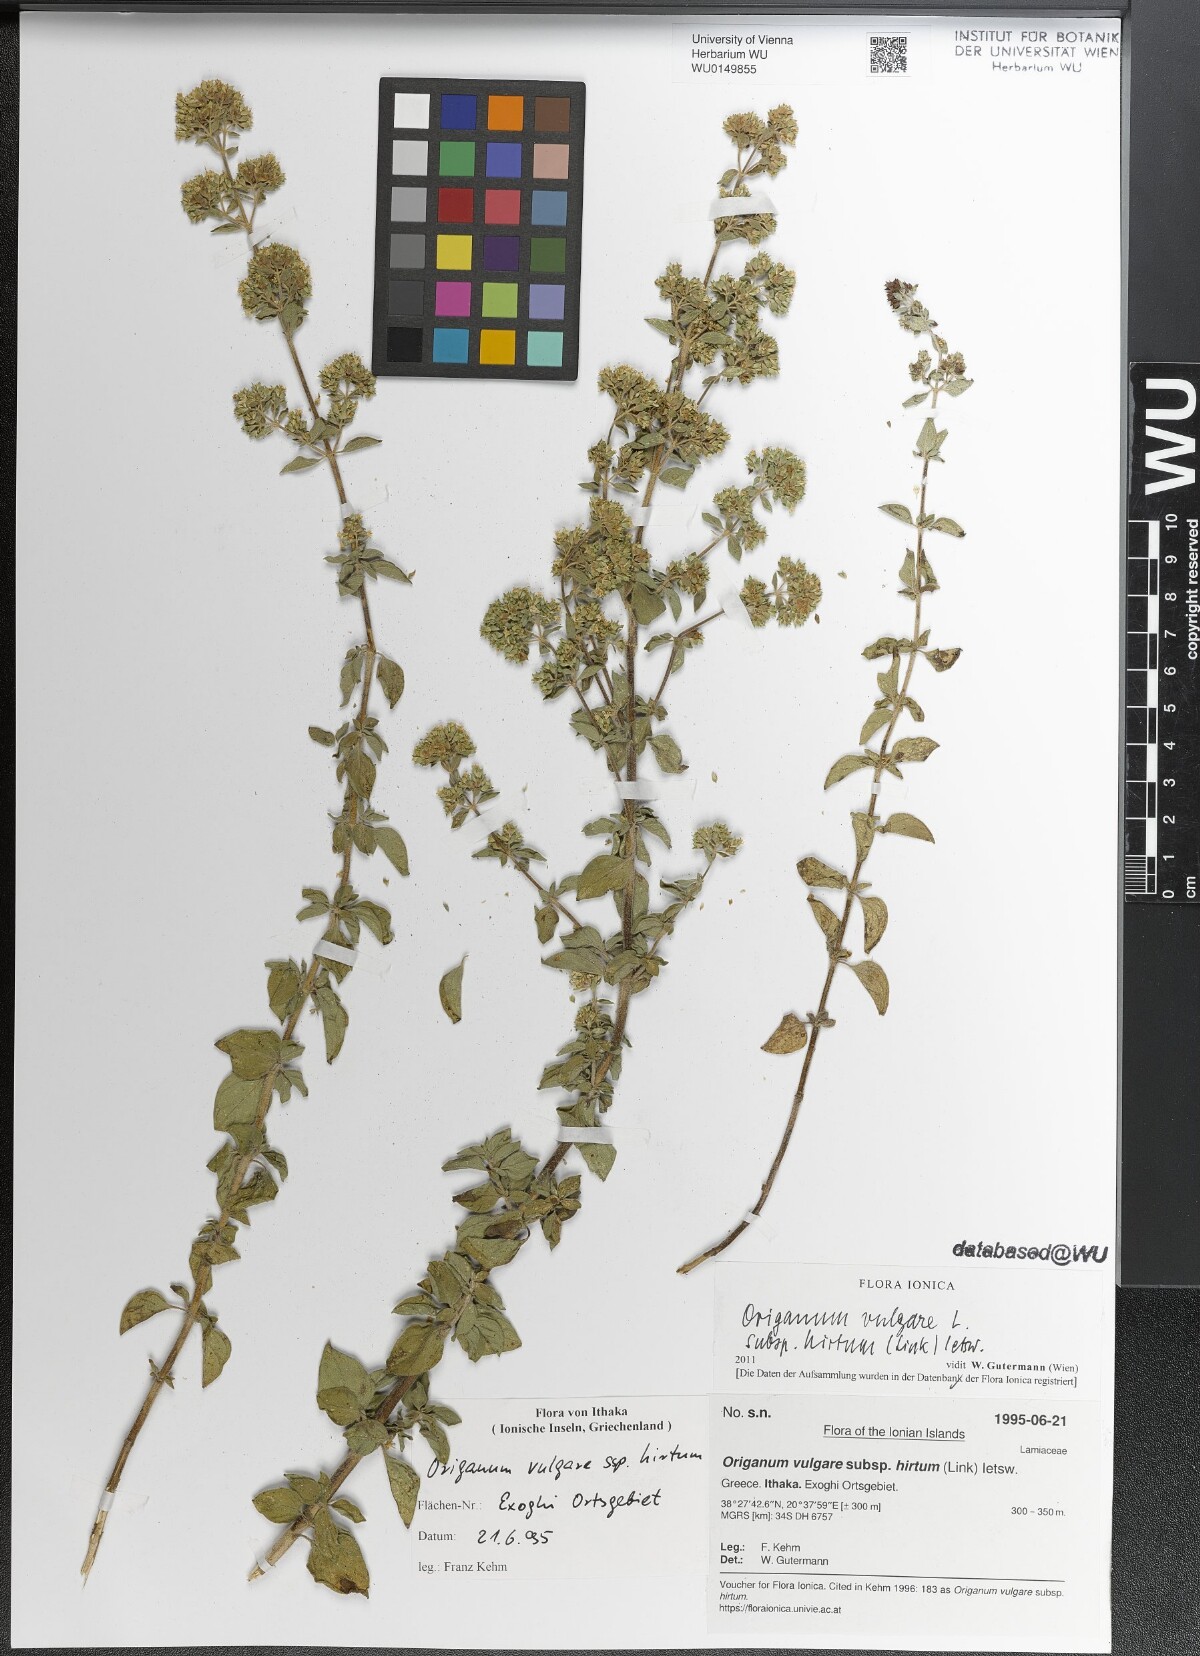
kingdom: Plantae
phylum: Tracheophyta
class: Magnoliopsida
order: Lamiales
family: Lamiaceae
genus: Origanum
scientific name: Origanum vulgare
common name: Wild marjoram
